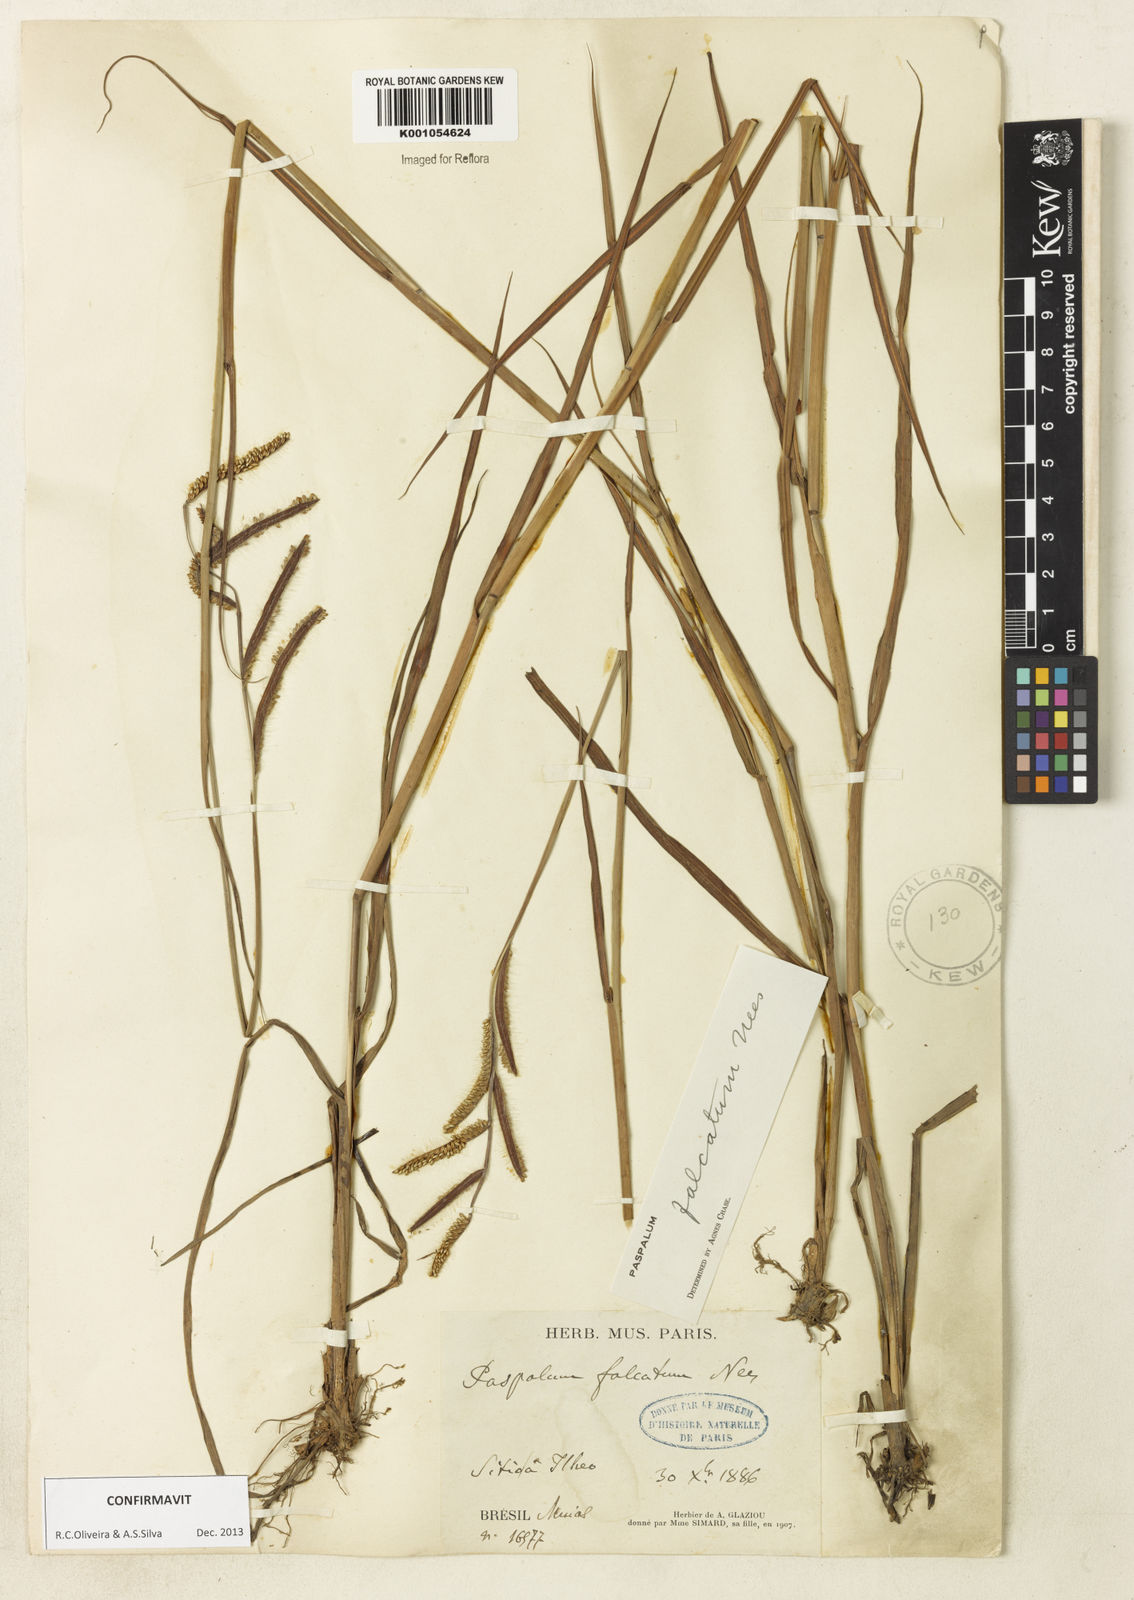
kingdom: Plantae
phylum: Tracheophyta
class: Liliopsida
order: Poales
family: Poaceae
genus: Paspalum
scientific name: Paspalum falcatum
